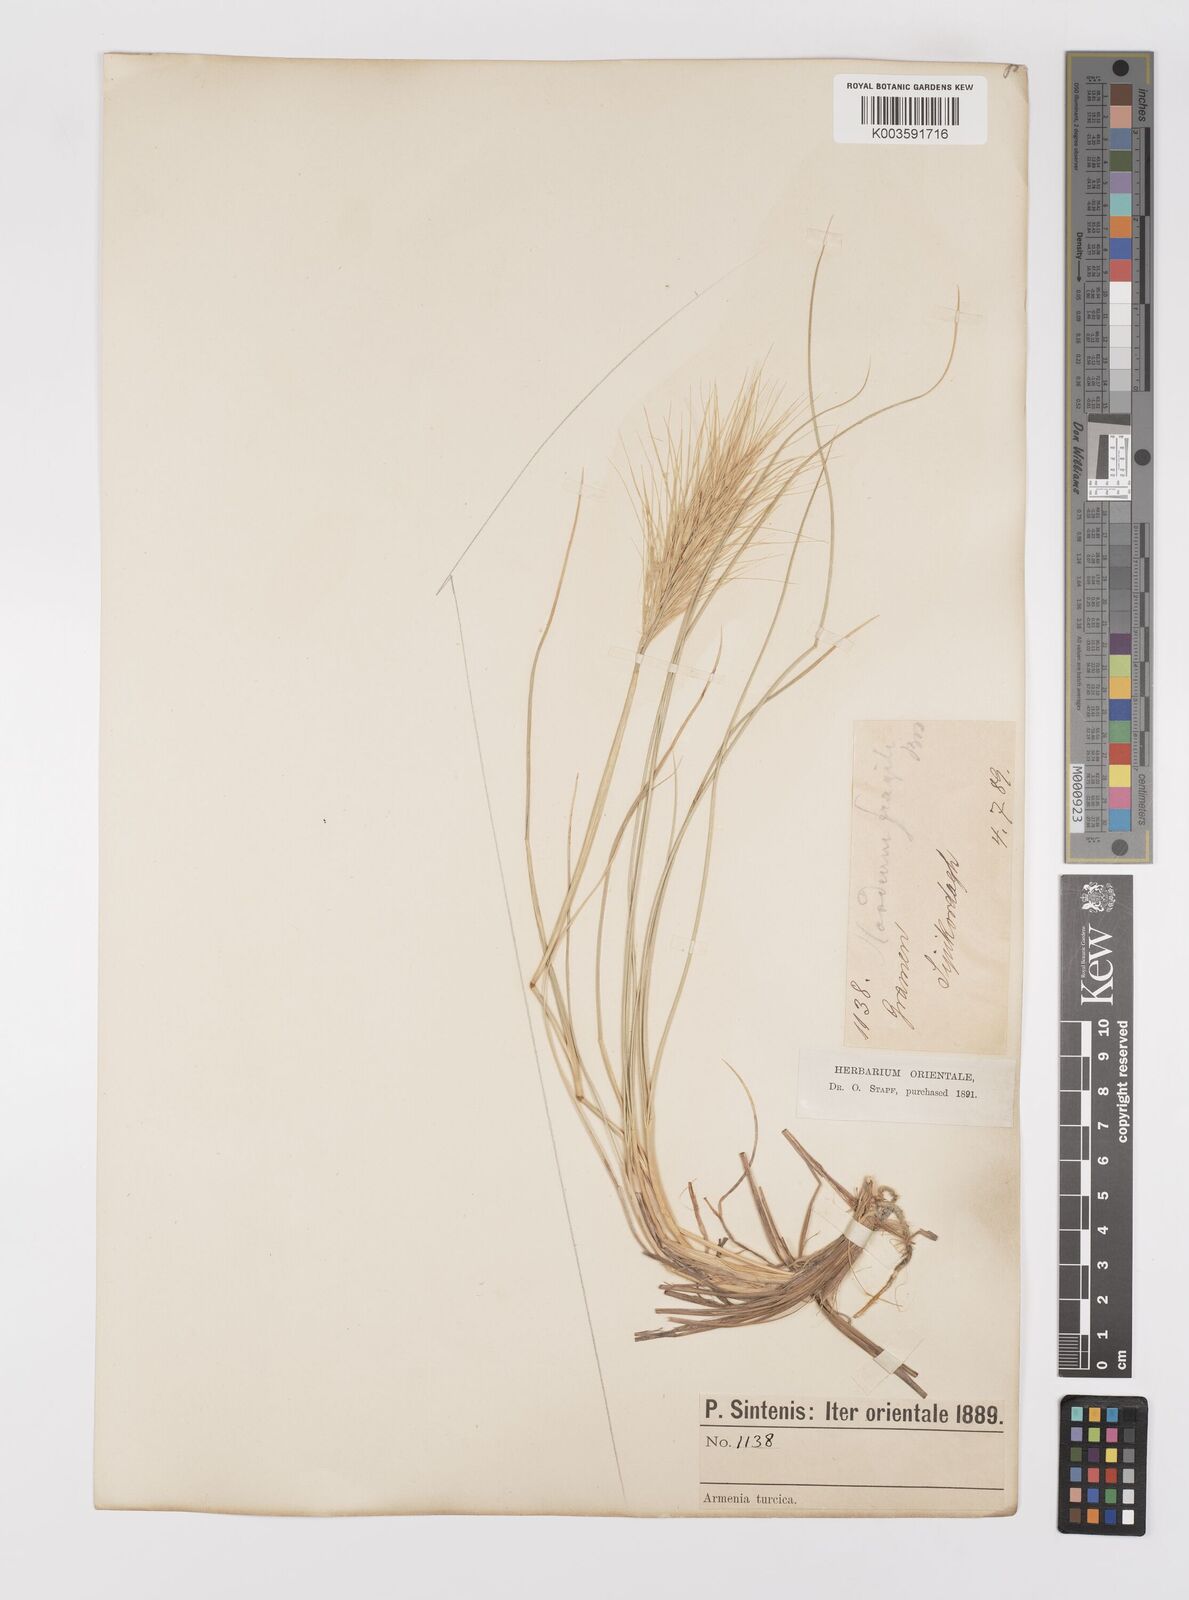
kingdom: Plantae
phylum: Tracheophyta
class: Liliopsida
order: Poales
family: Poaceae
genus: Psathyrostachys
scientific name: Psathyrostachys fragilis
